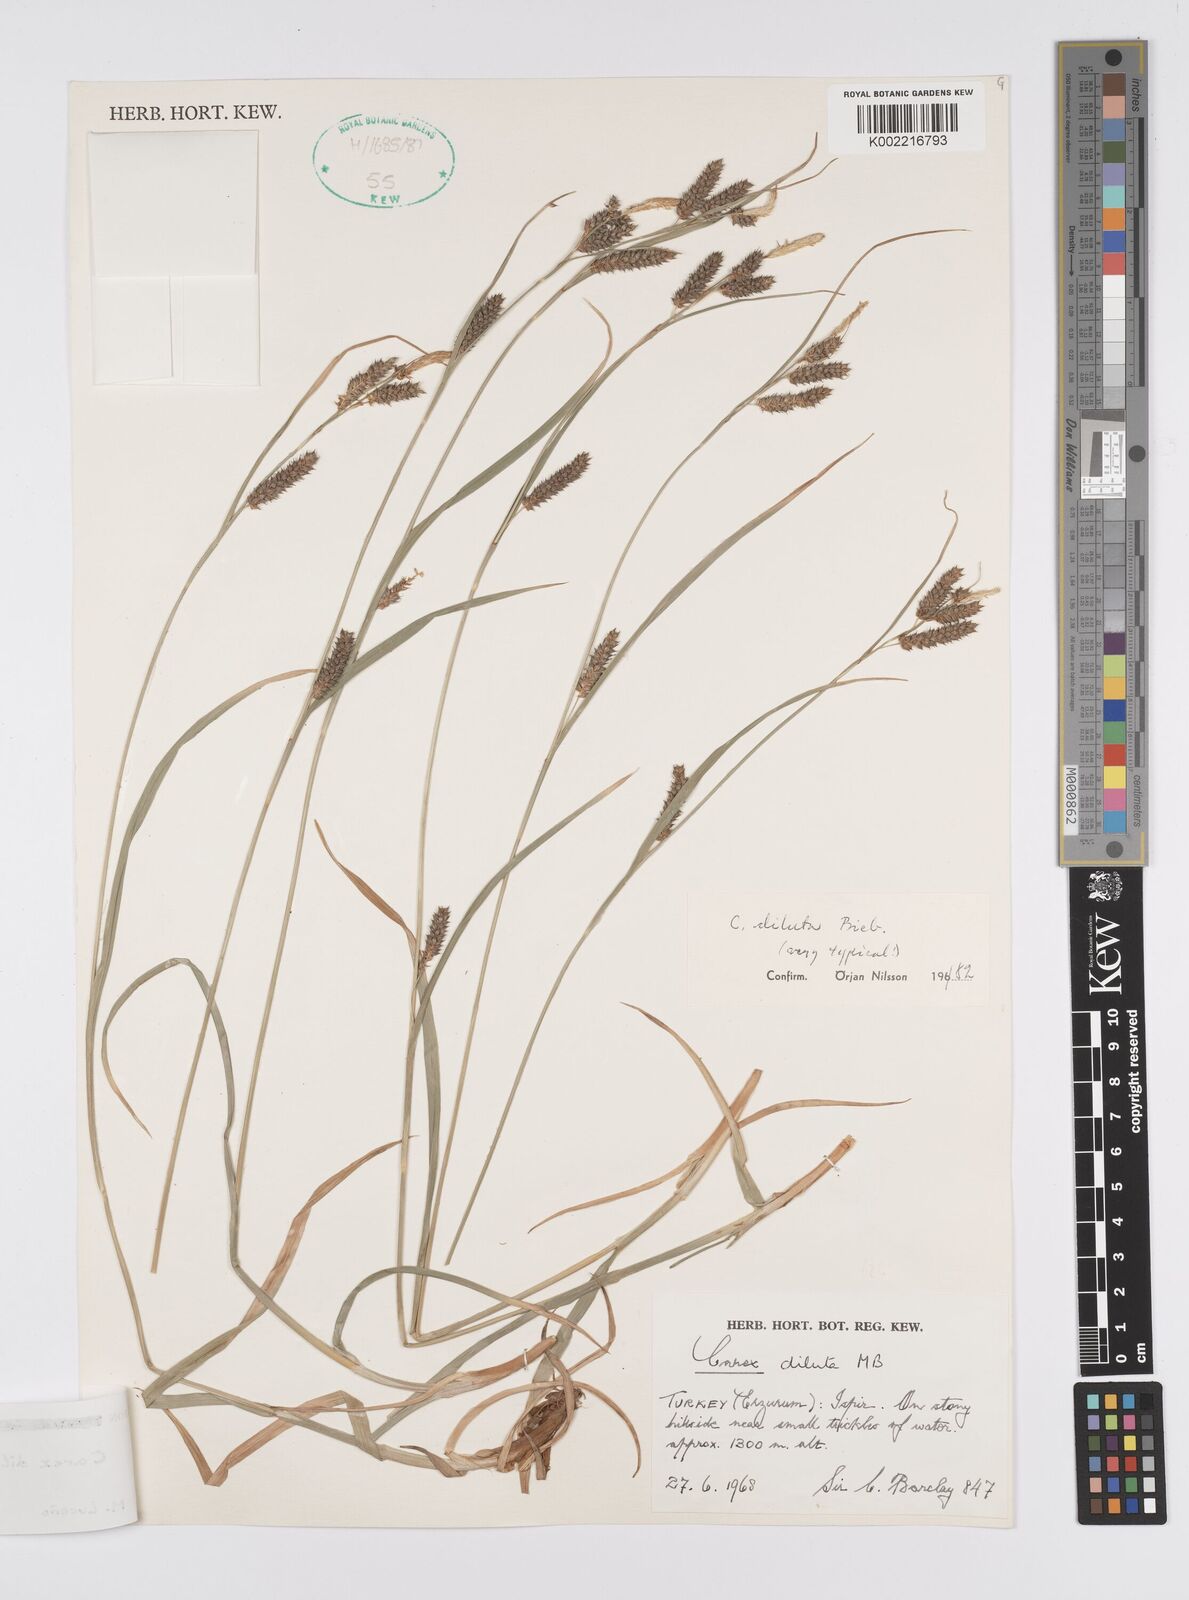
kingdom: Plantae
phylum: Tracheophyta
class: Liliopsida
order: Poales
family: Cyperaceae
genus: Carex
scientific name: Carex diluta
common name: Sedge
